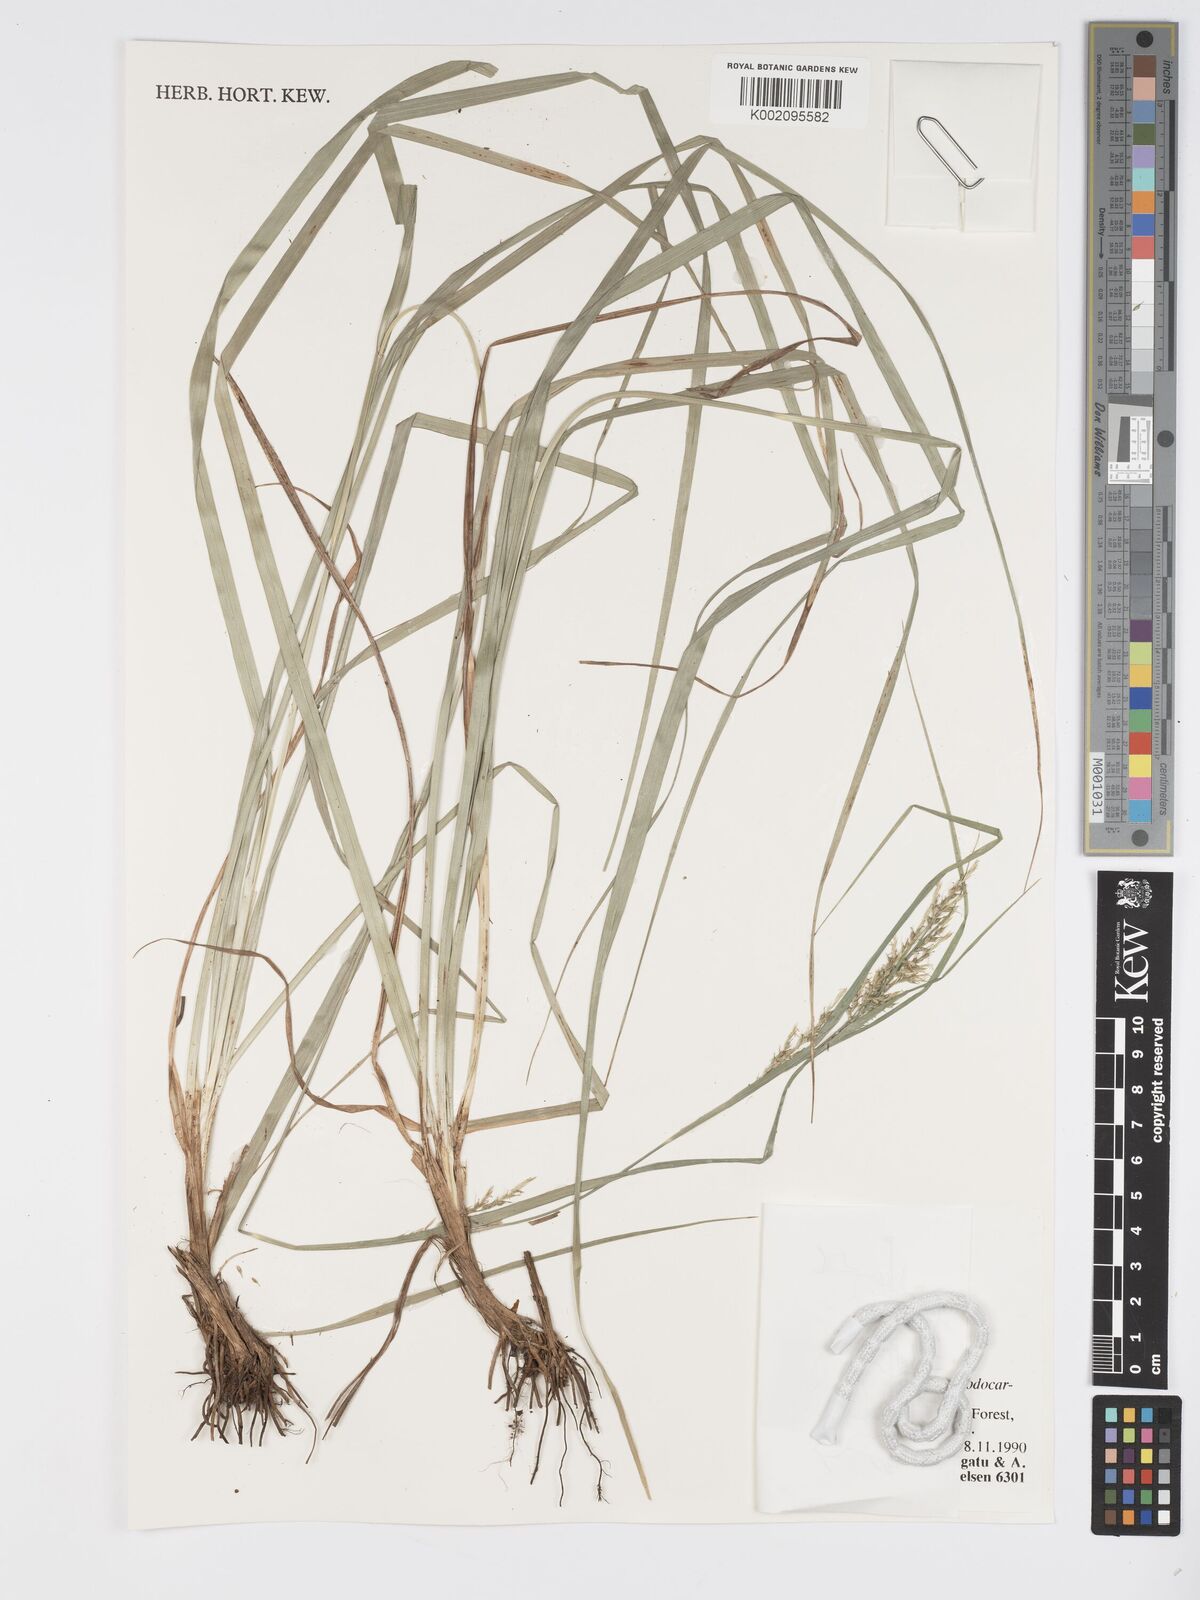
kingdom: Plantae
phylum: Tracheophyta
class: Liliopsida
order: Poales
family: Cyperaceae
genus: Carex
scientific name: Carex chlorosaccus
